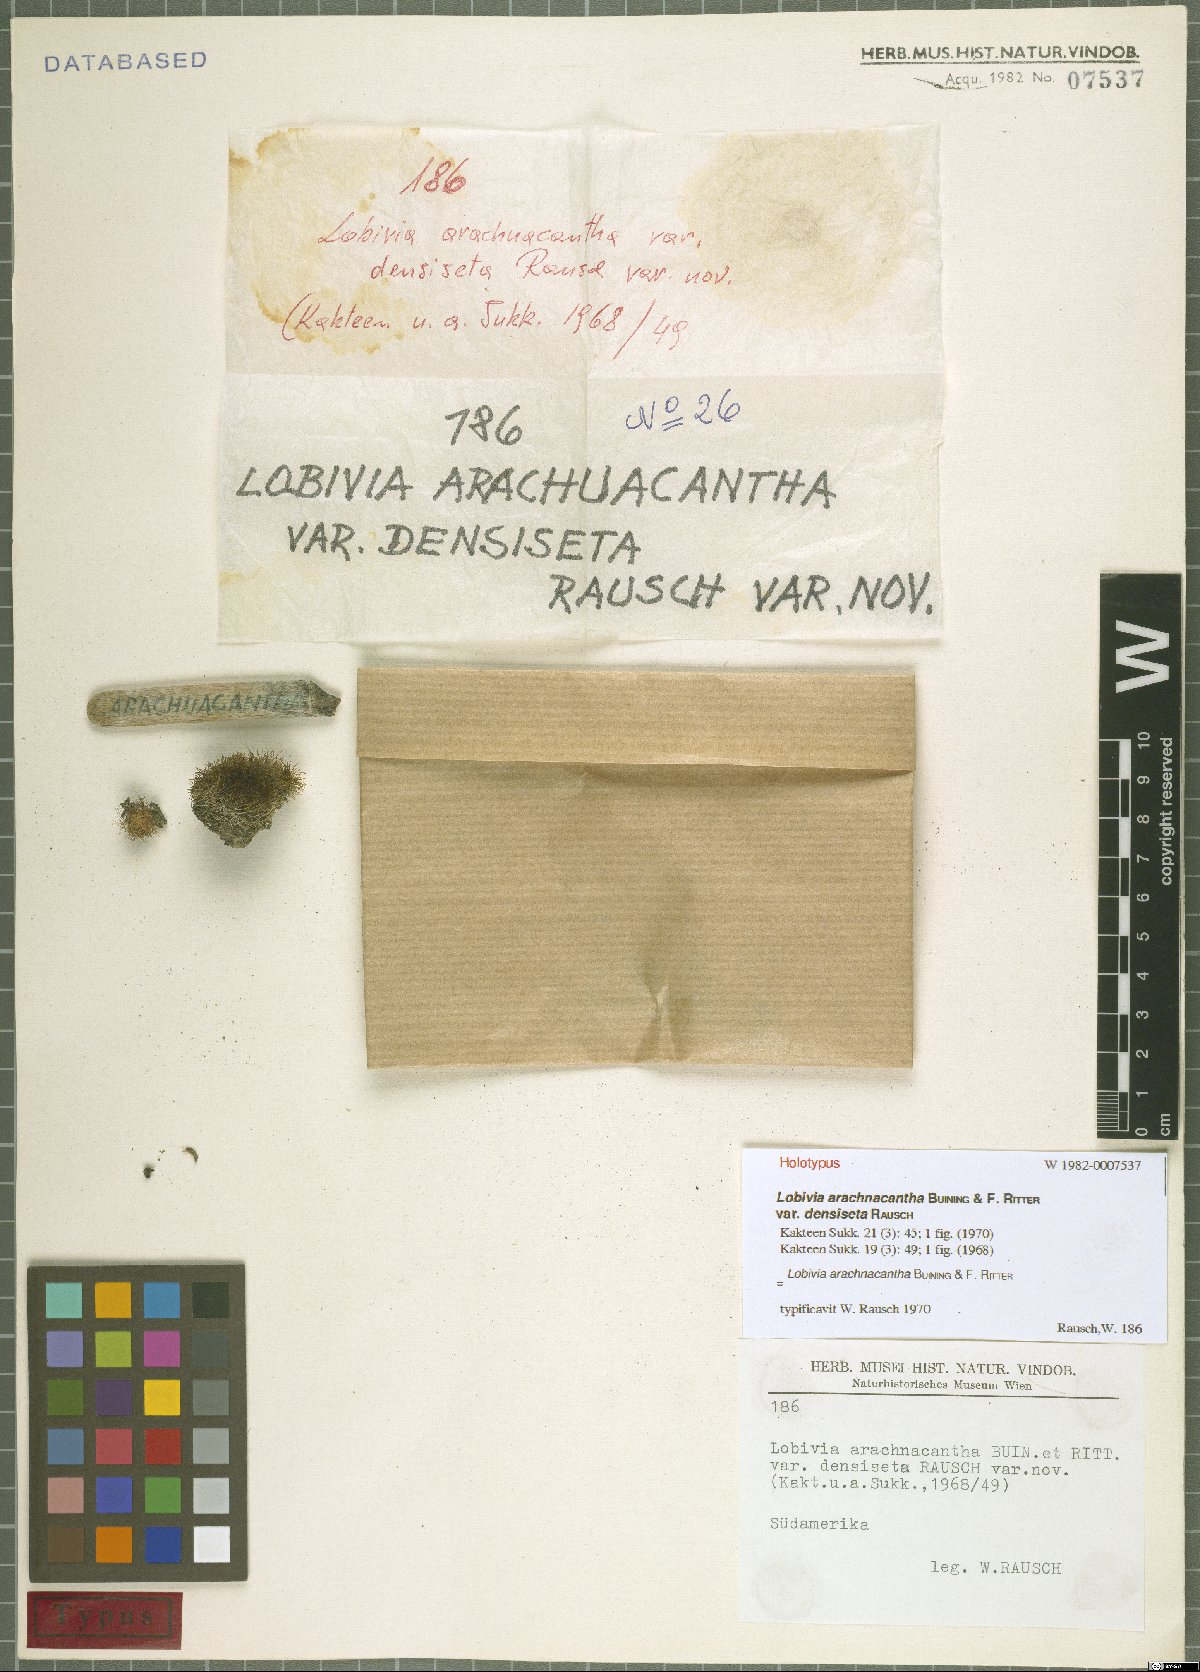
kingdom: Plantae
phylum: Tracheophyta
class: Magnoliopsida
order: Caryophyllales
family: Cactaceae
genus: Lobivia
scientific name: Lobivia arachnacantha
